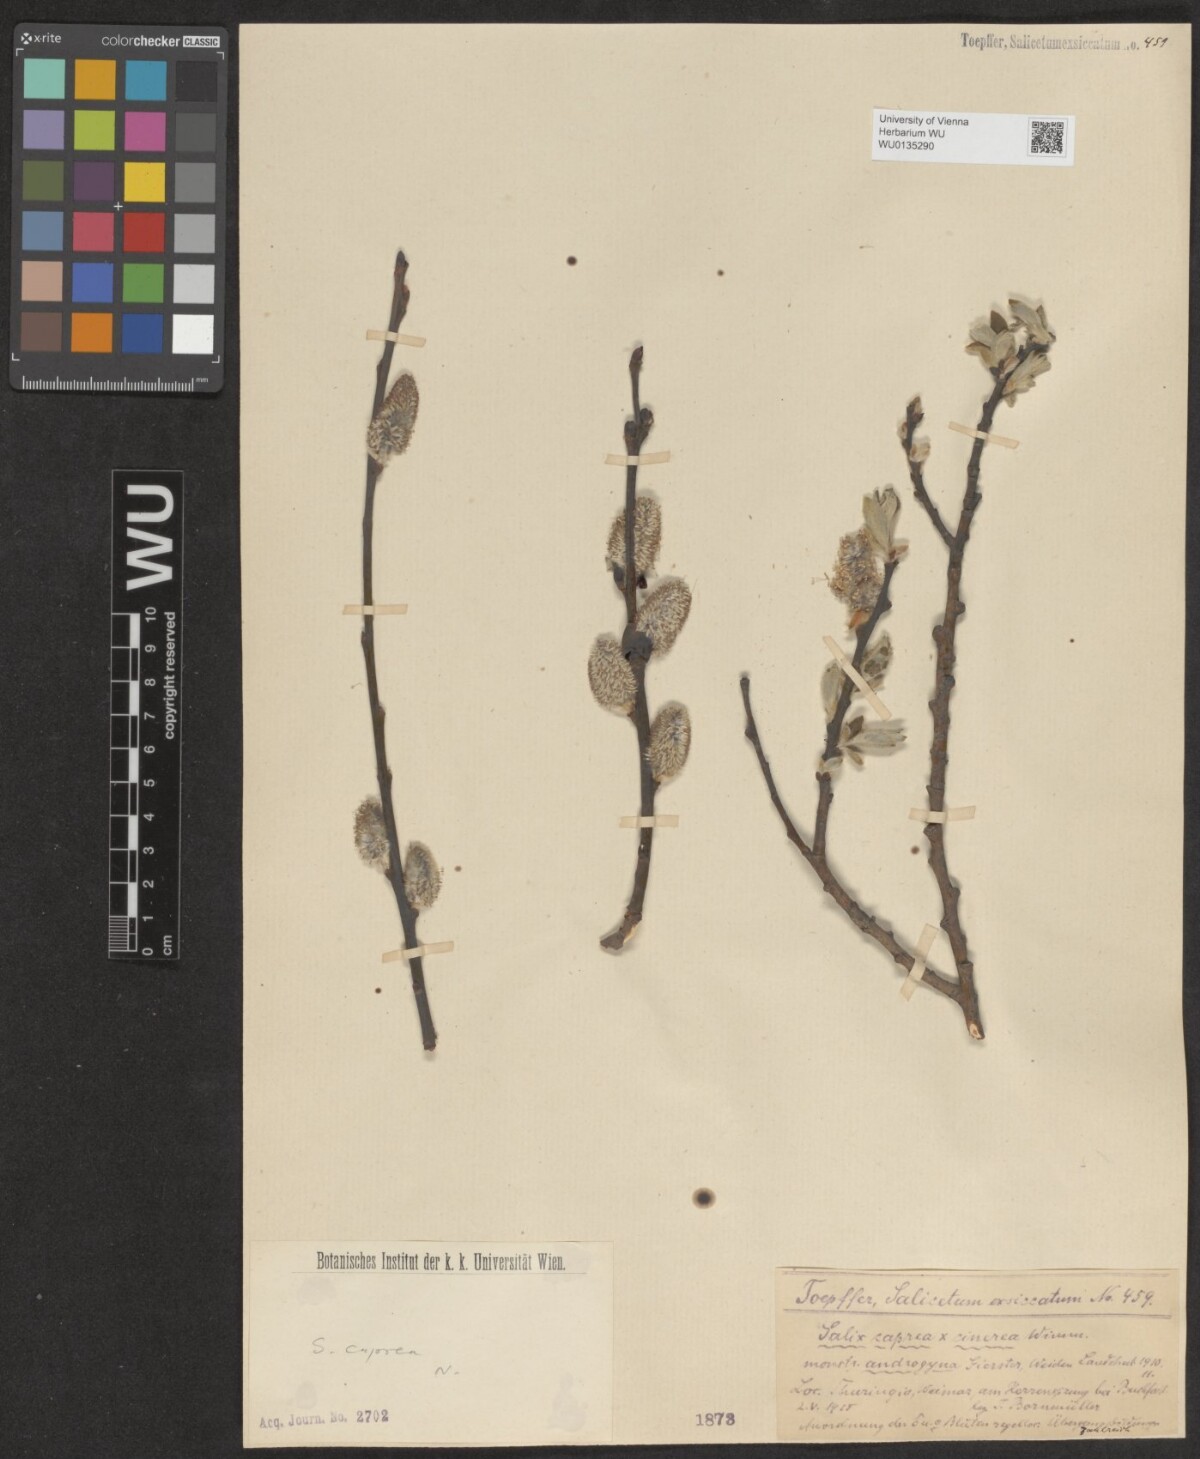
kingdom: Plantae
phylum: Tracheophyta
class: Magnoliopsida
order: Malpighiales
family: Salicaceae
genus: Salix
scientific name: Salix caprea
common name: Goat willow
